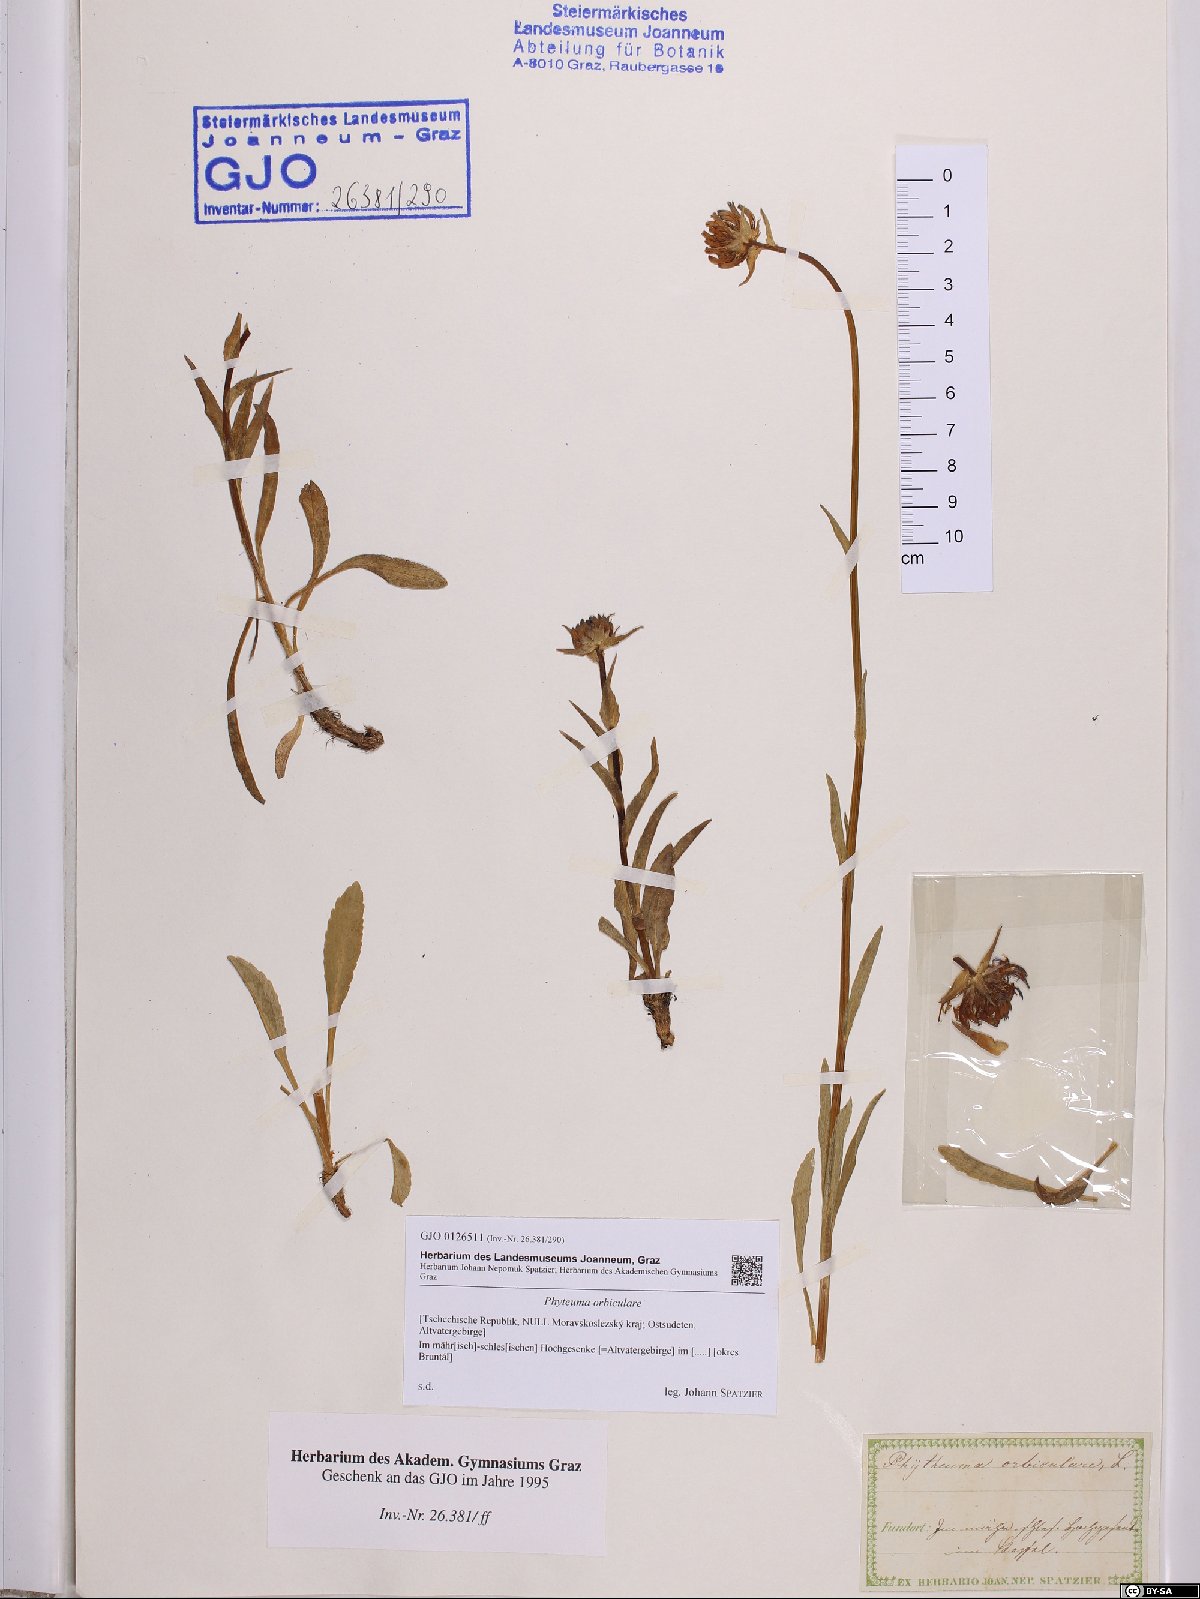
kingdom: Plantae
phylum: Tracheophyta
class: Magnoliopsida
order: Asterales
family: Campanulaceae
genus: Phyteuma
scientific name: Phyteuma orbiculare
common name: Round-headed rampion
